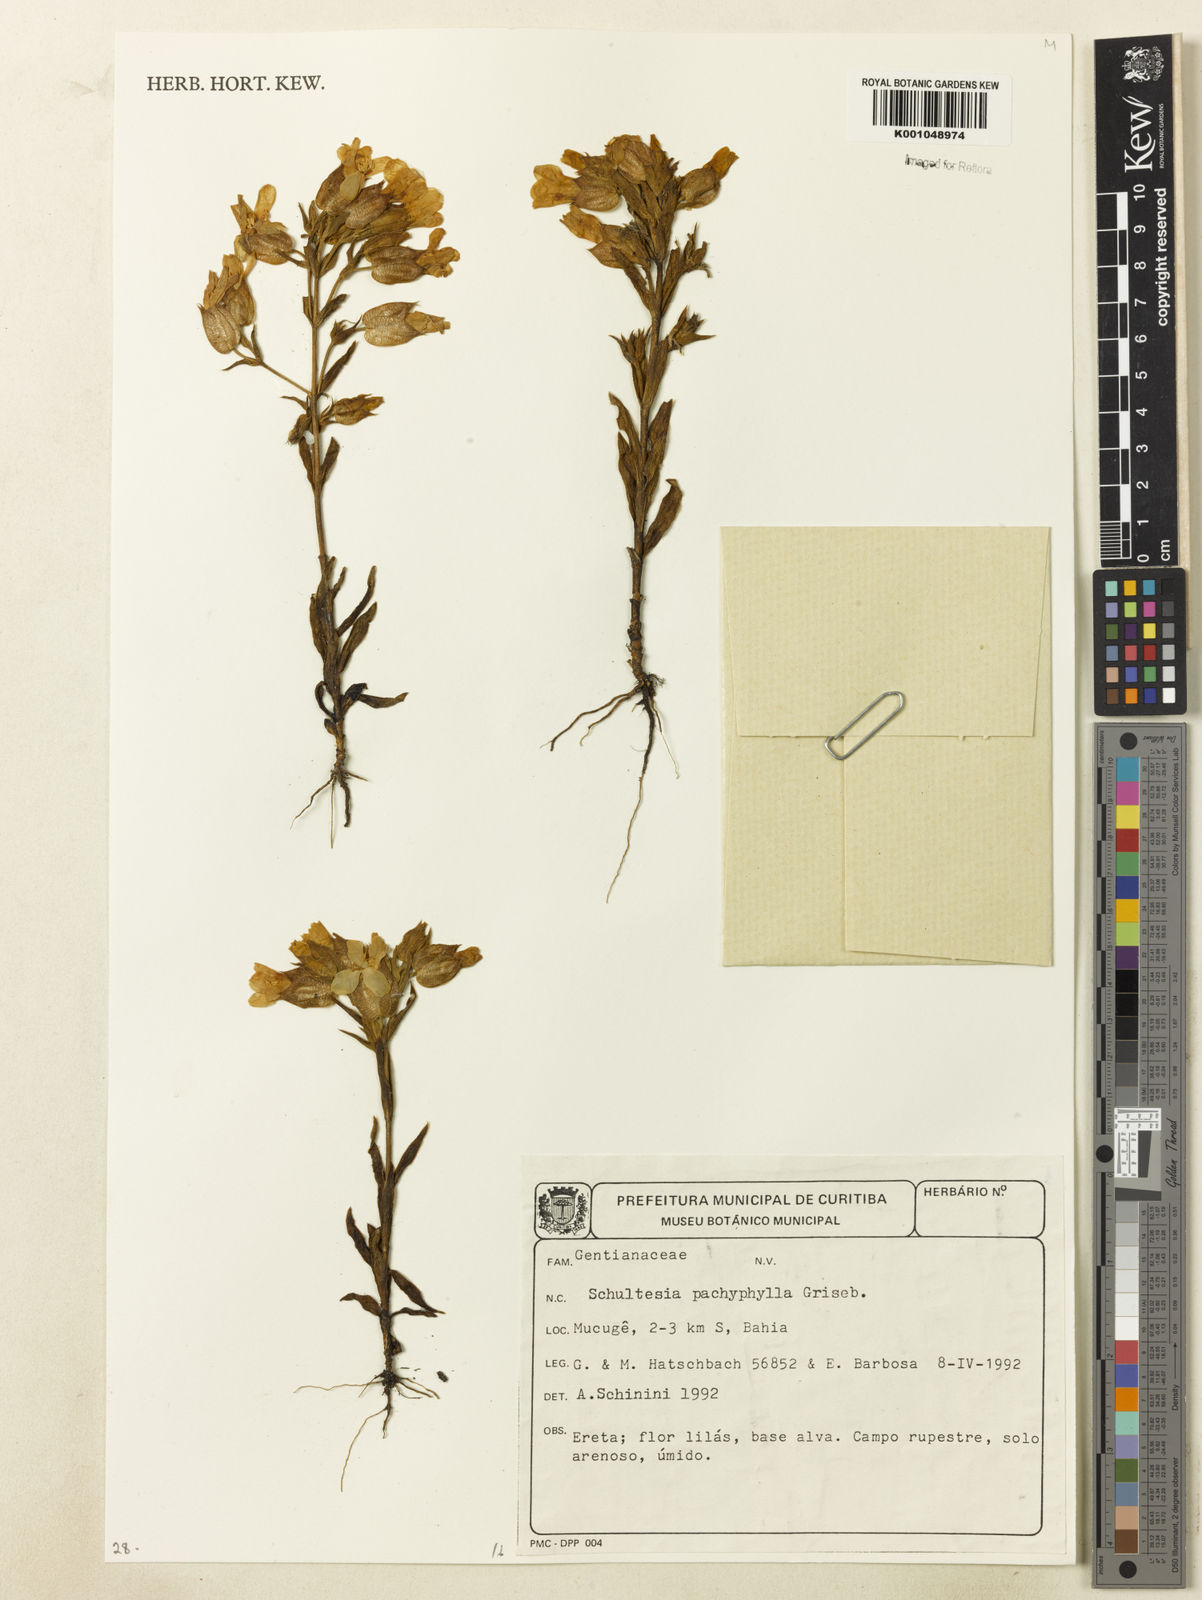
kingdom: Plantae
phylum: Tracheophyta
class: Magnoliopsida
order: Gentianales
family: Gentianaceae
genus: Schultesia
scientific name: Schultesia pachyphylla
